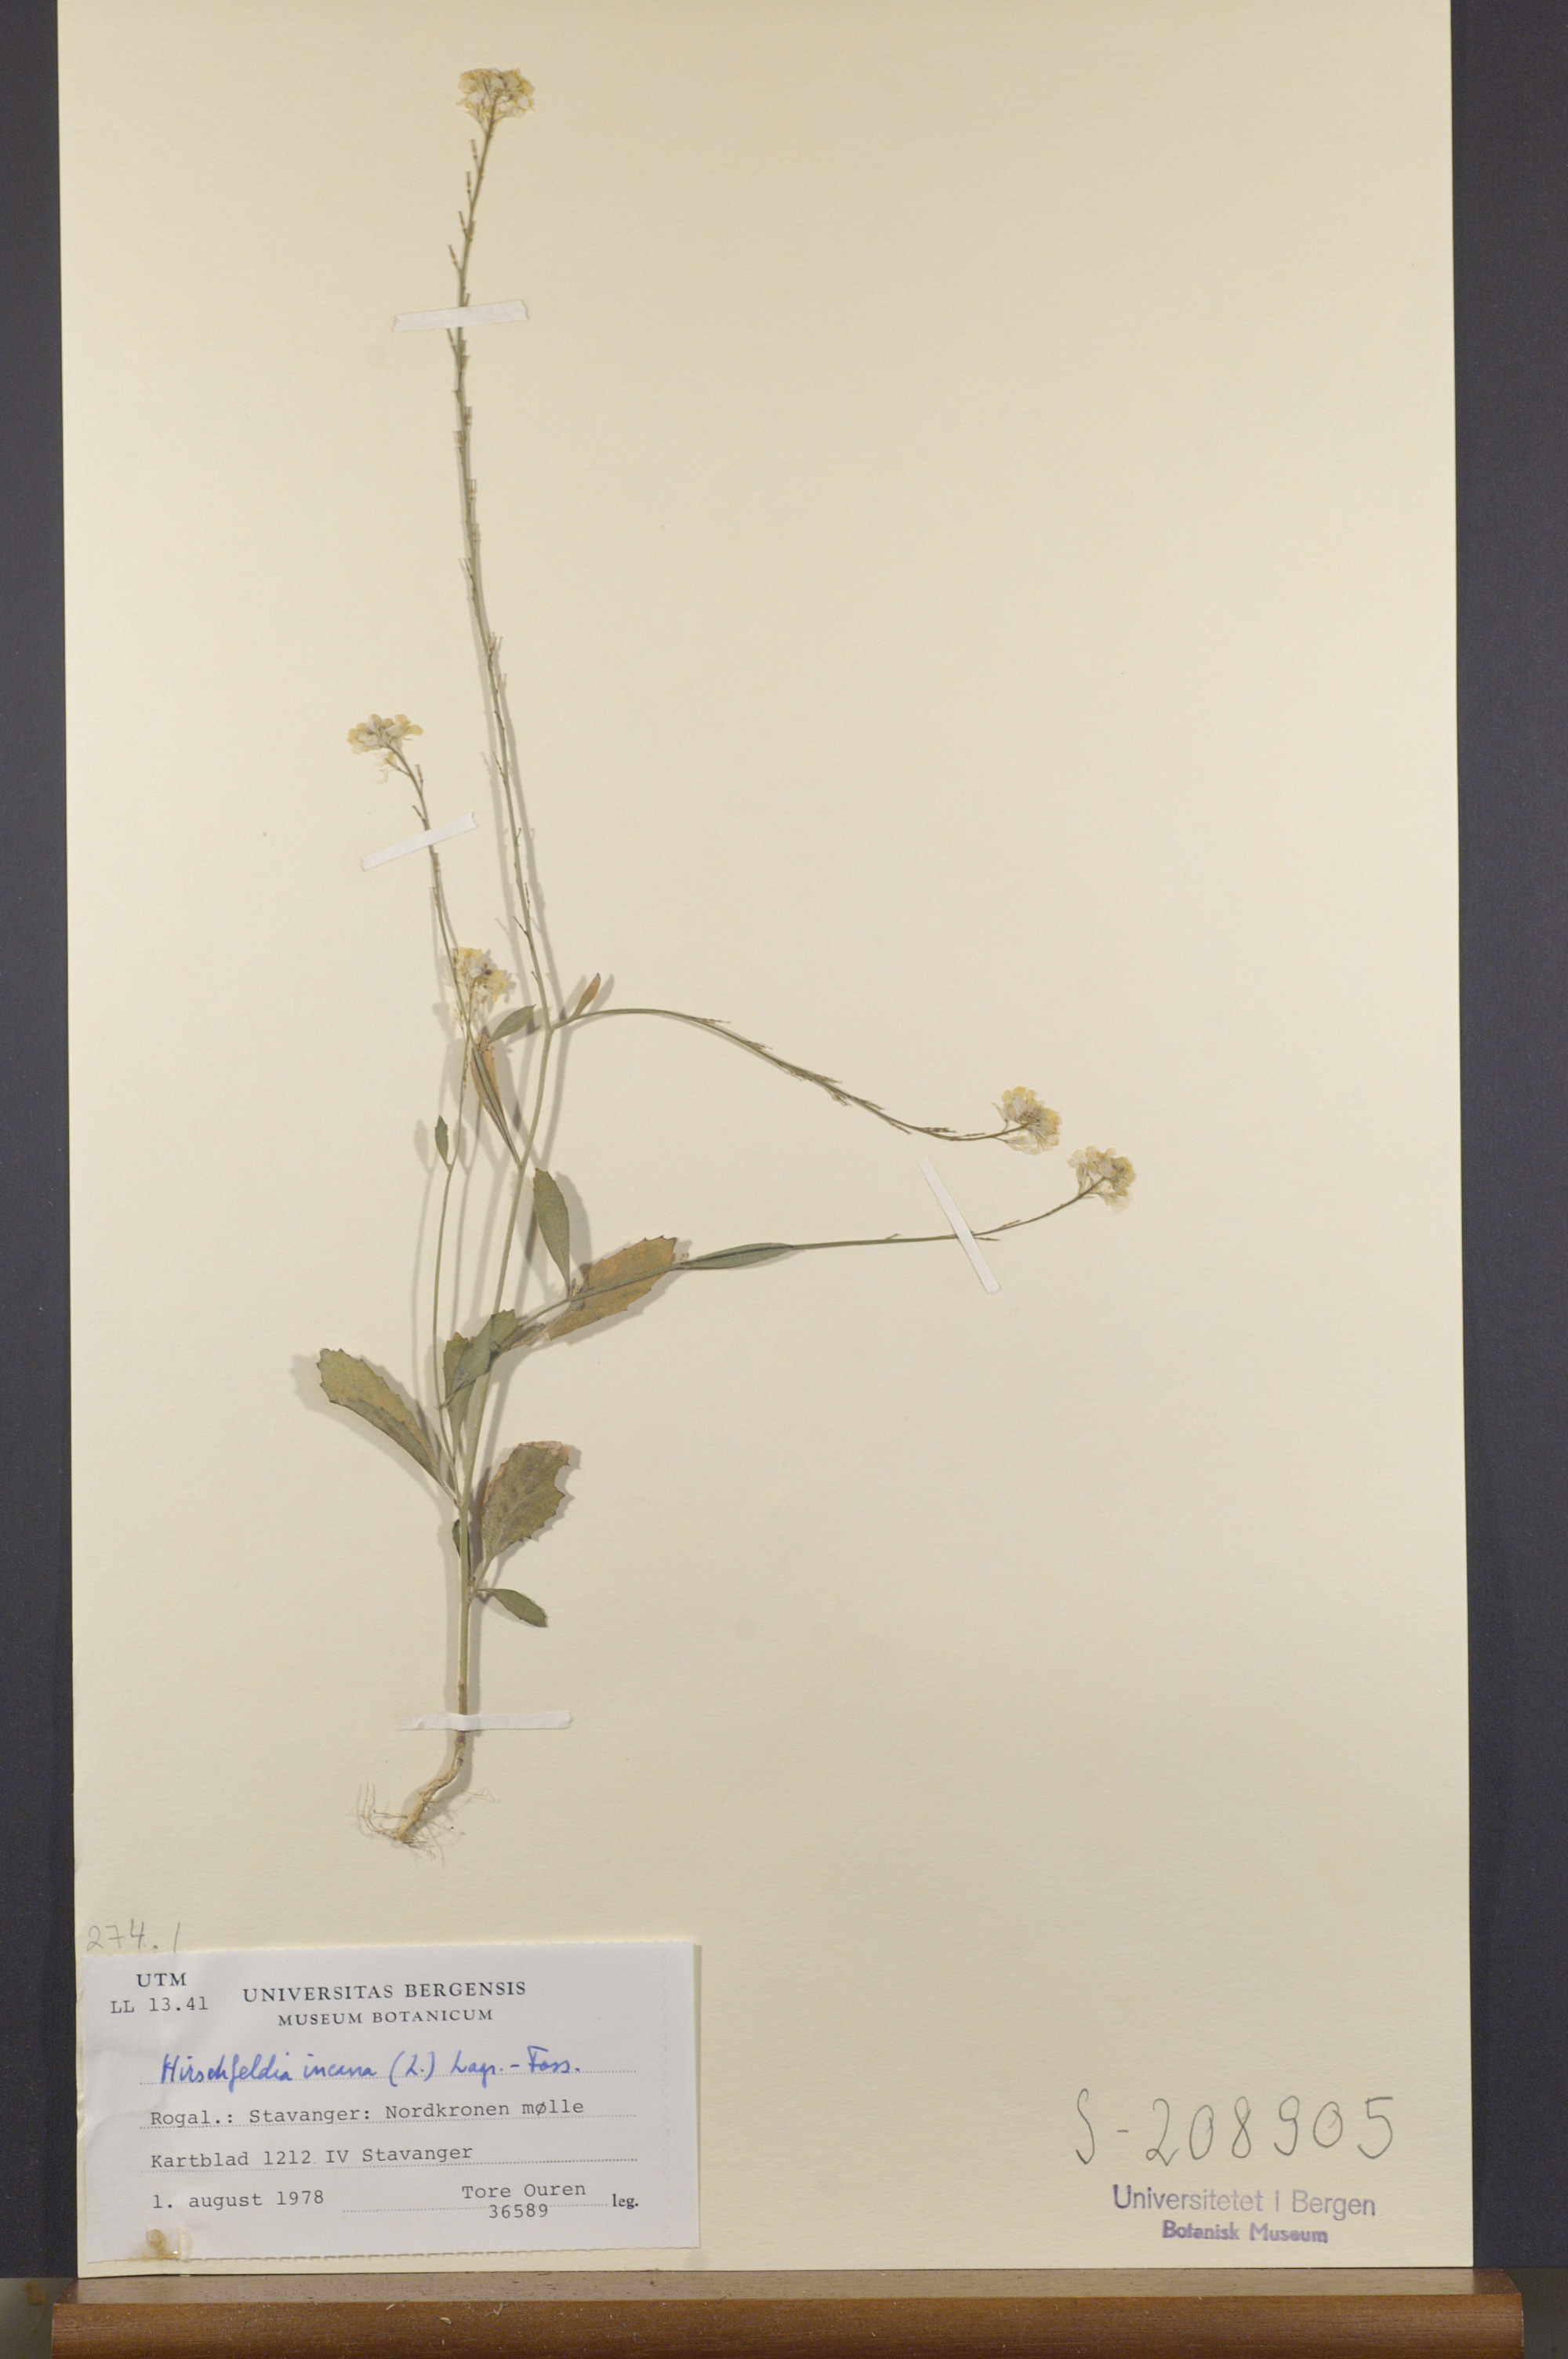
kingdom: Plantae
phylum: Tracheophyta
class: Magnoliopsida
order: Brassicales
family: Brassicaceae
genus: Hirschfeldia
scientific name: Hirschfeldia incana
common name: Hoary mustard
